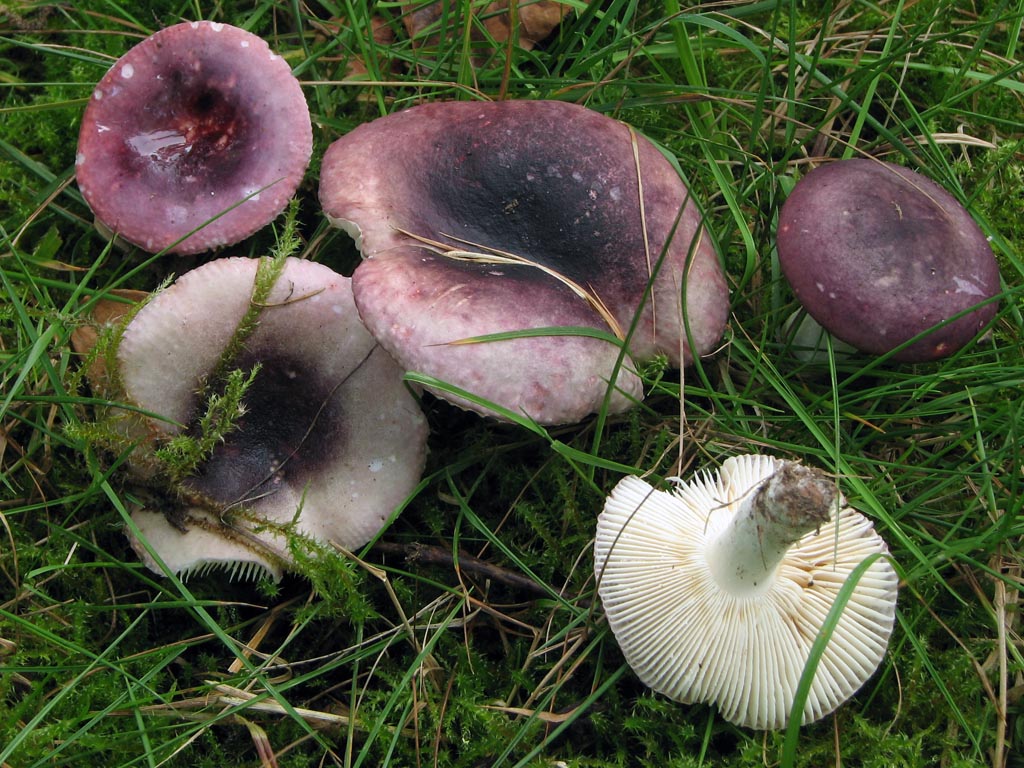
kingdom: Fungi
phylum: Basidiomycota
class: Agaricomycetes
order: Russulales
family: Russulaceae
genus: Russula
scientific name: Russula fragilis
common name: Fragile brittlegill
